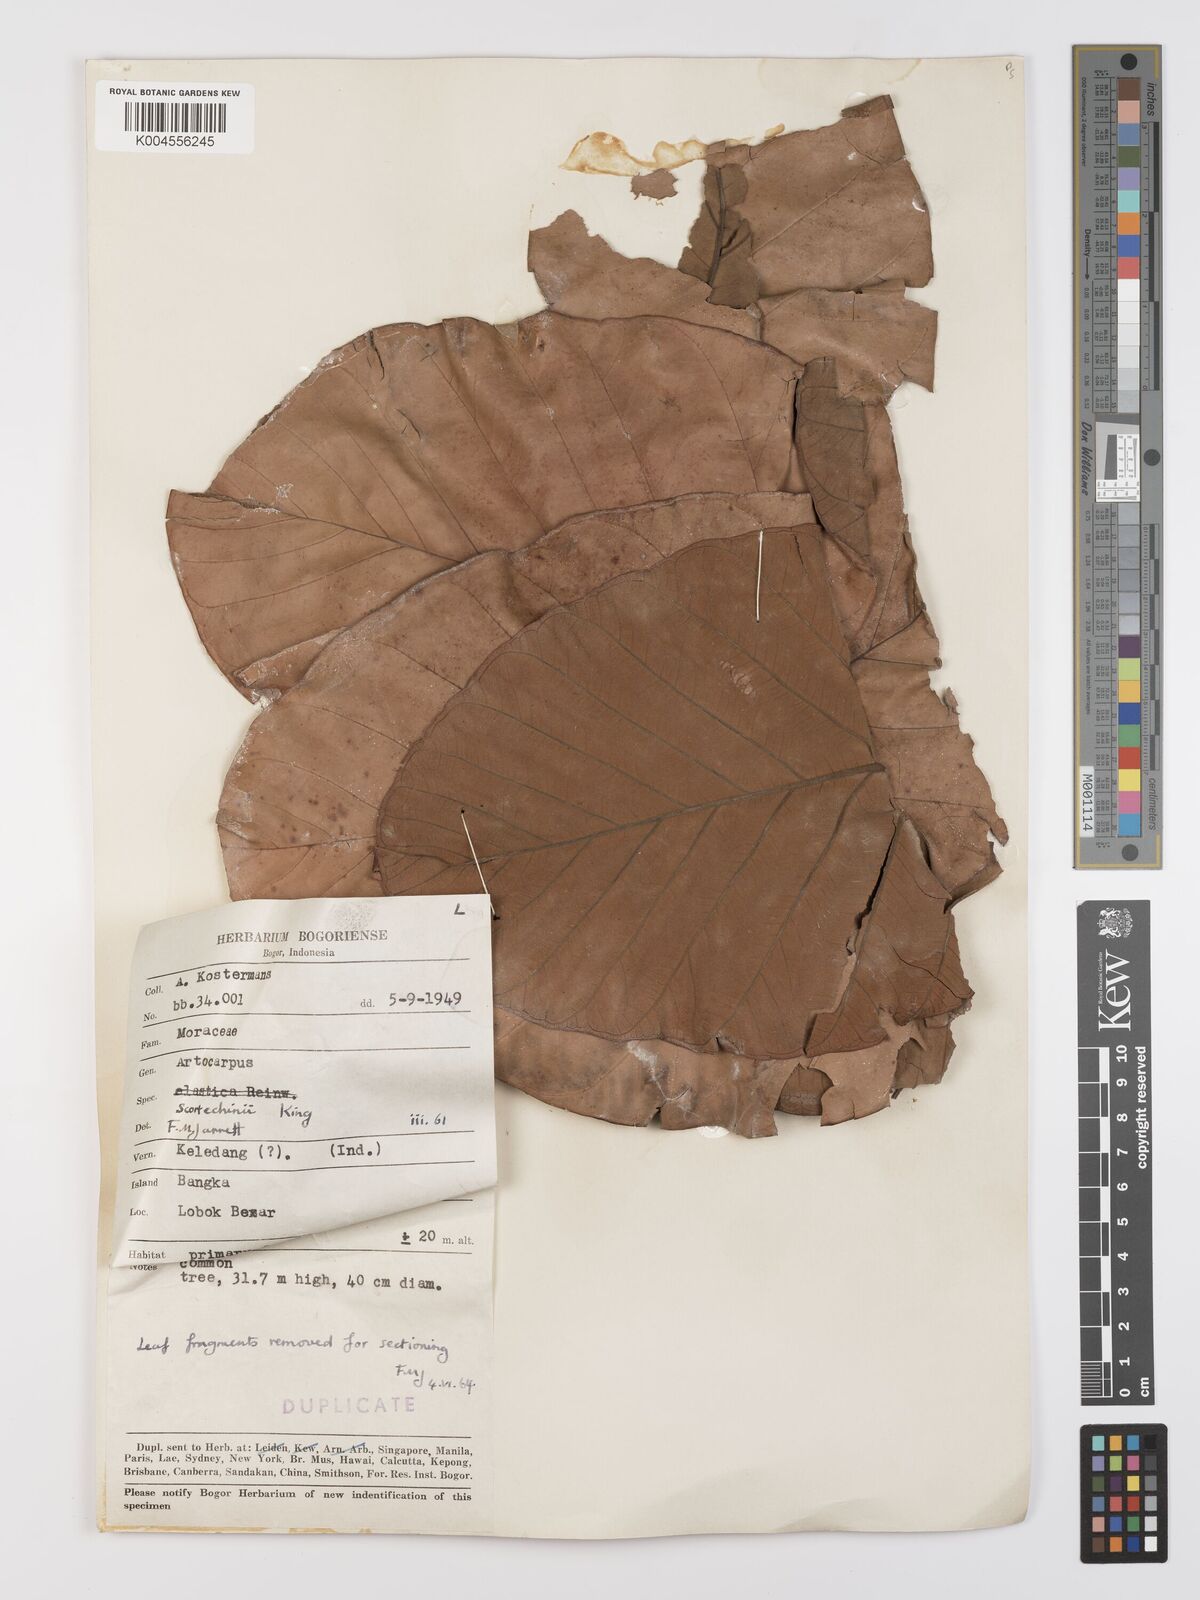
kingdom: Plantae
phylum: Tracheophyta
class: Magnoliopsida
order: Rosales
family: Moraceae
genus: Artocarpus
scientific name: Artocarpus elasticus
